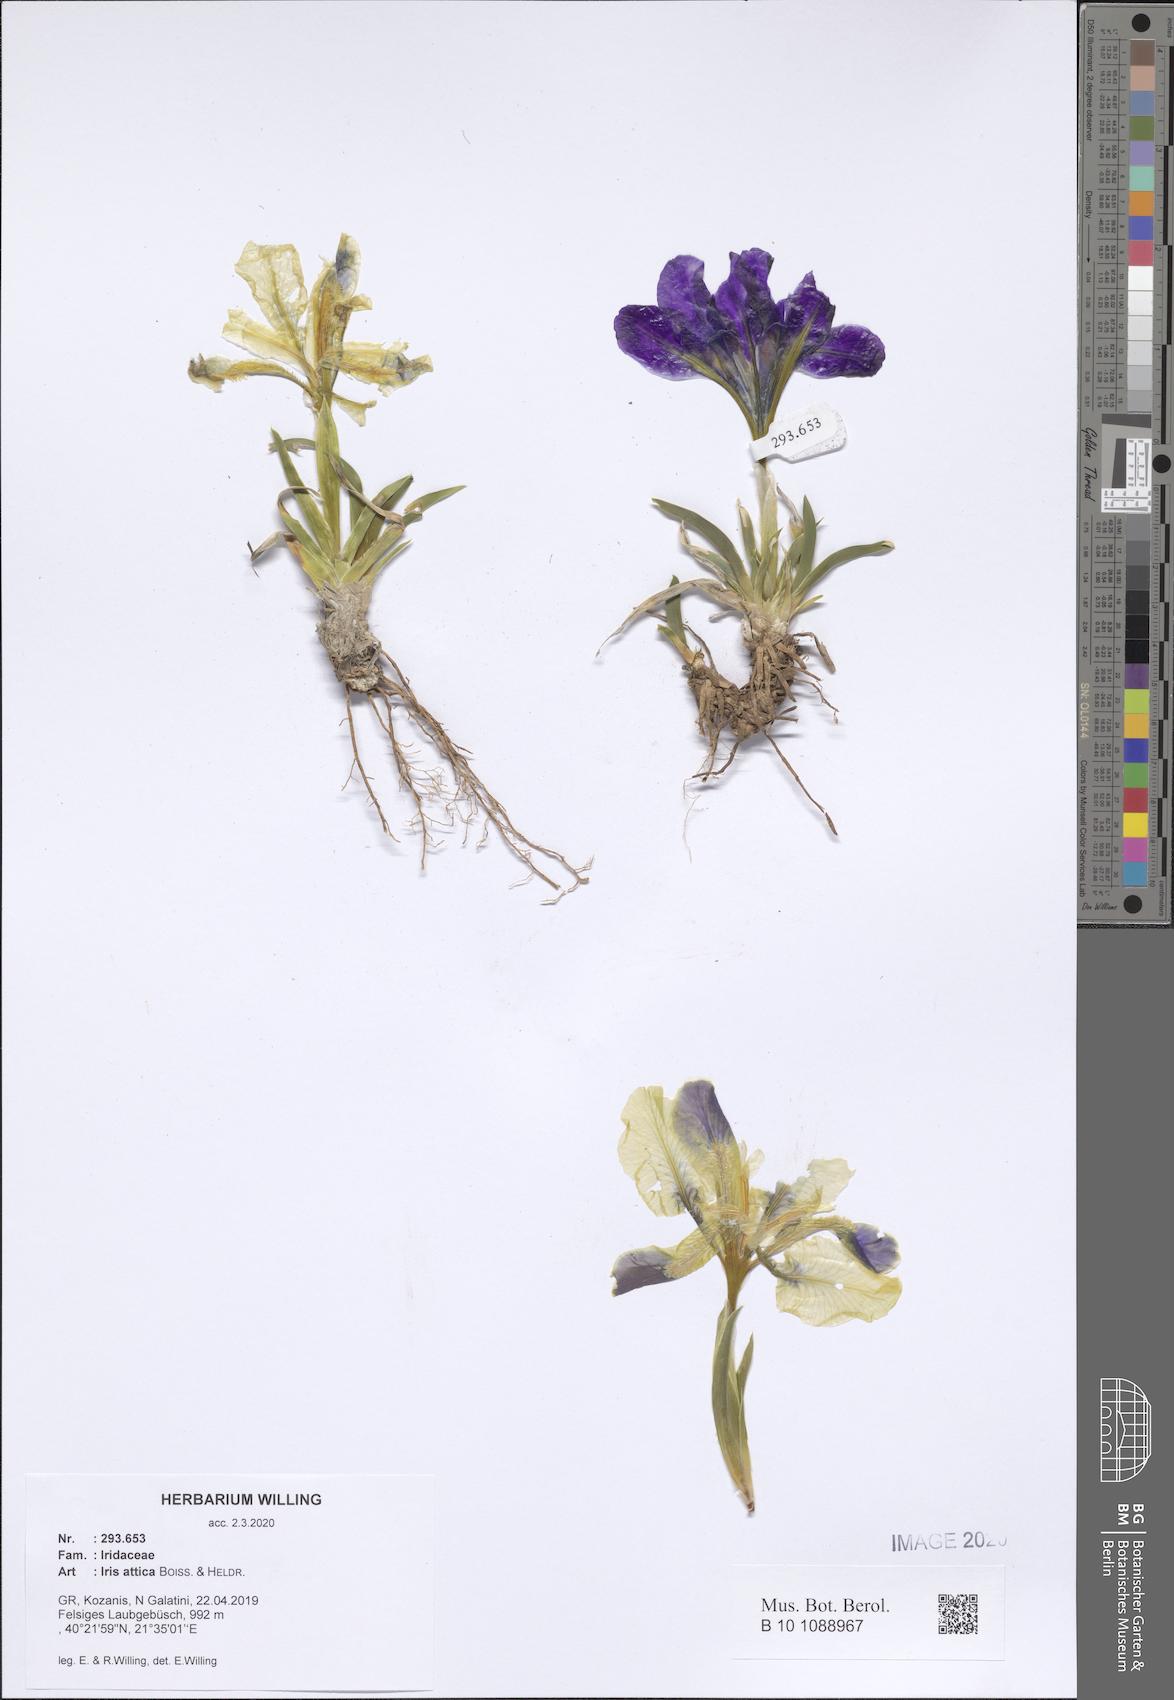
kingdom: Plantae
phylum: Tracheophyta
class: Liliopsida
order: Asparagales
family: Iridaceae
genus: Iris
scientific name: Iris pumila
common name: Dwarf iris
